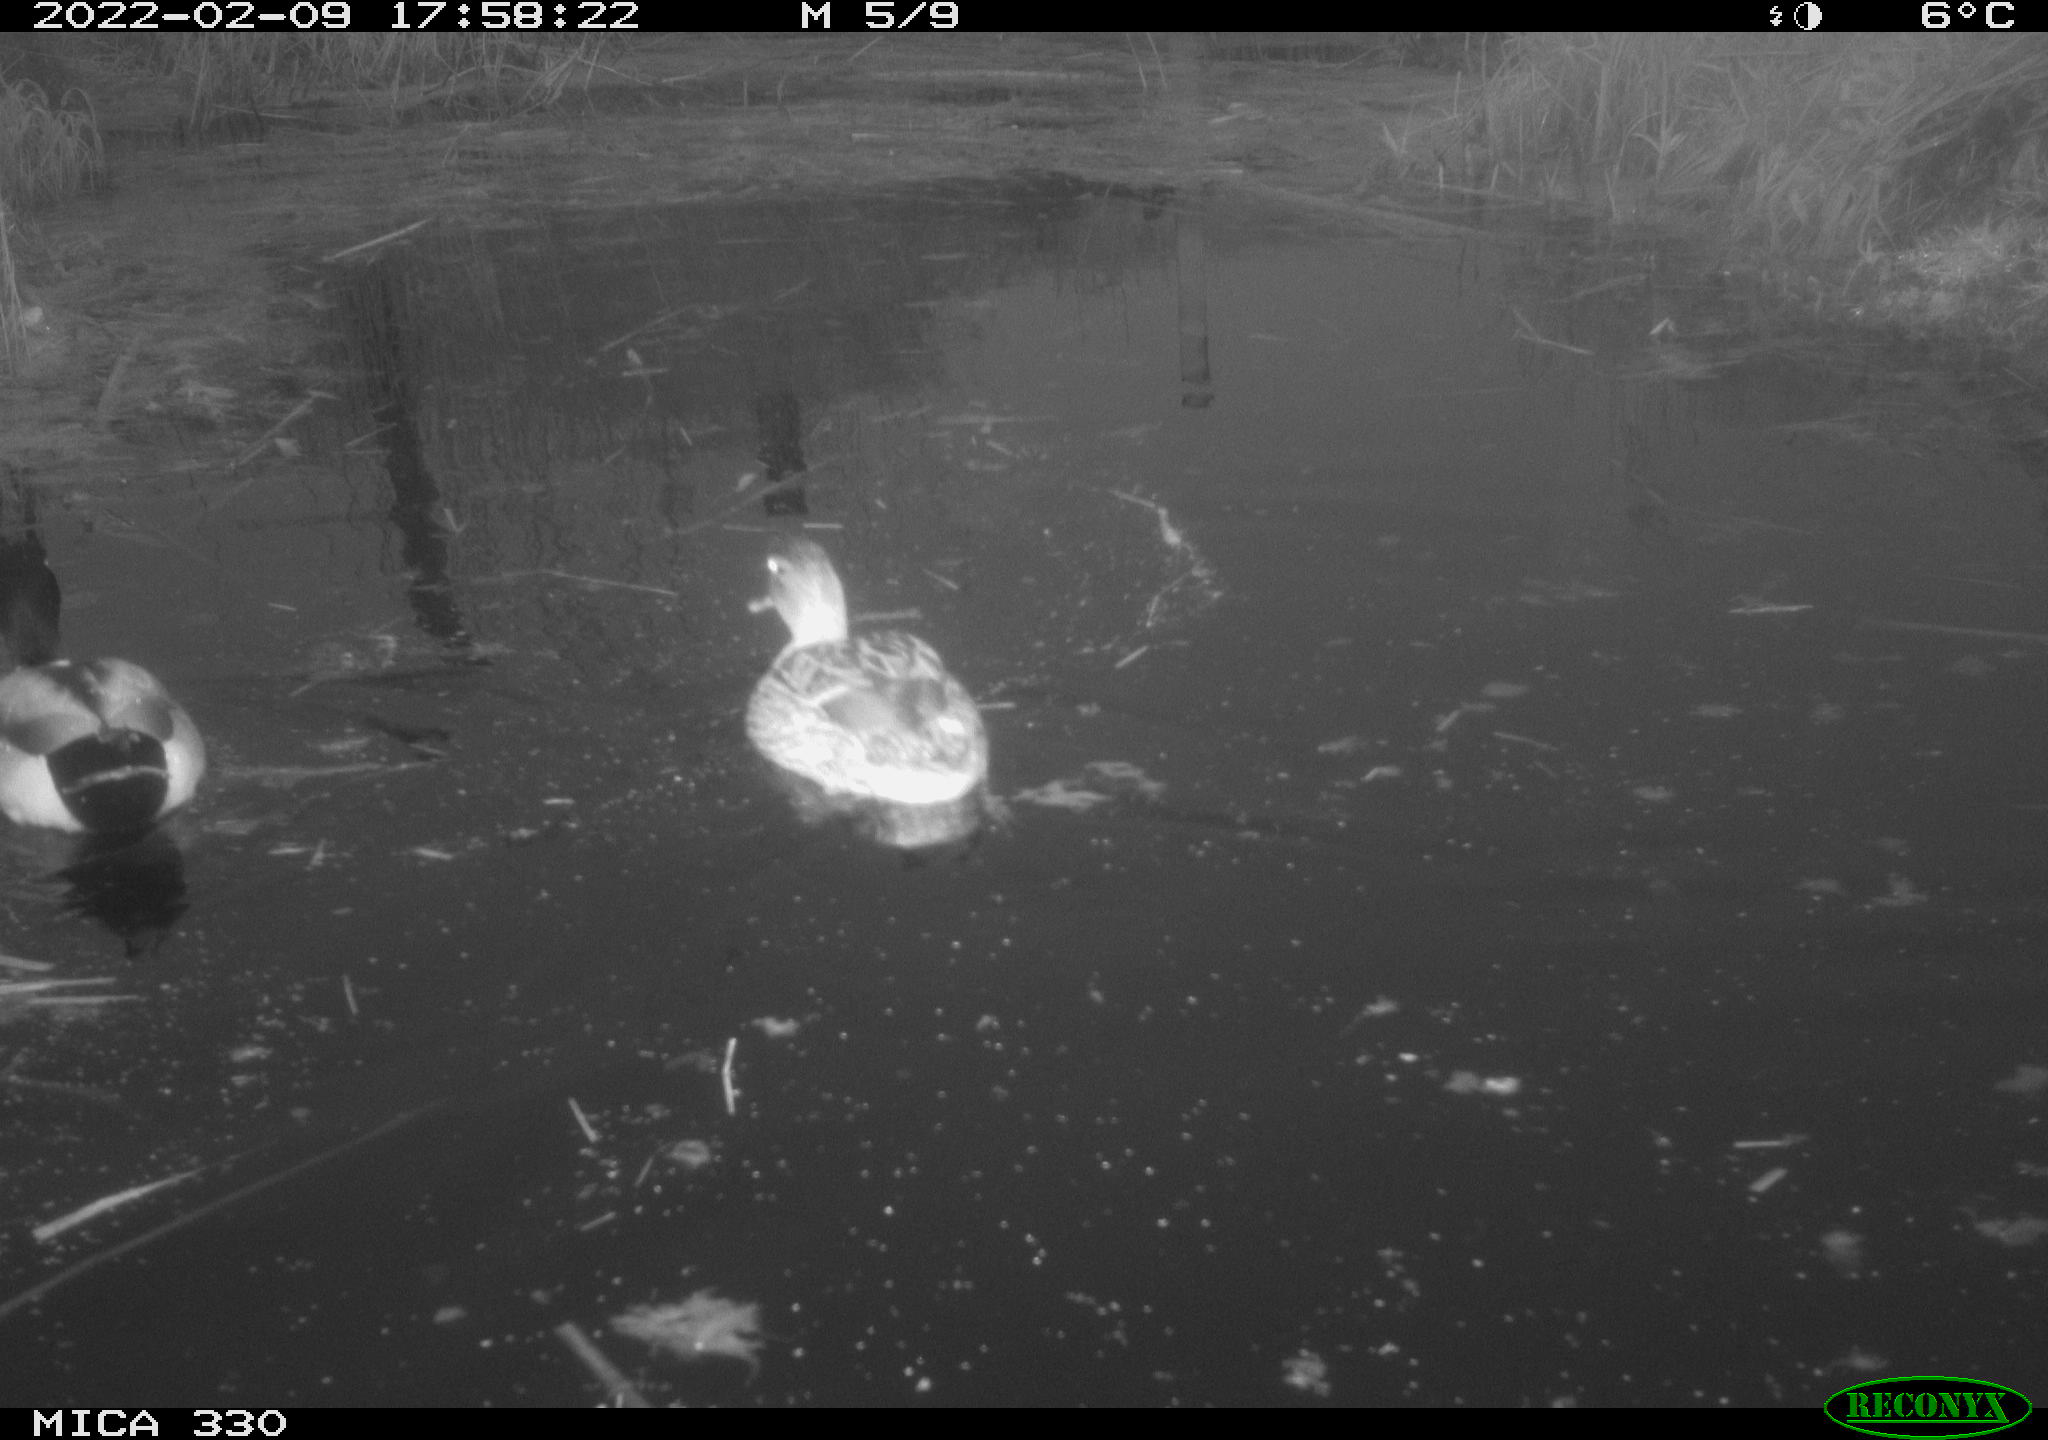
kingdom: Animalia
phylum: Chordata
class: Aves
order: Anseriformes
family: Anatidae
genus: Anas
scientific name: Anas platyrhynchos
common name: Mallard
